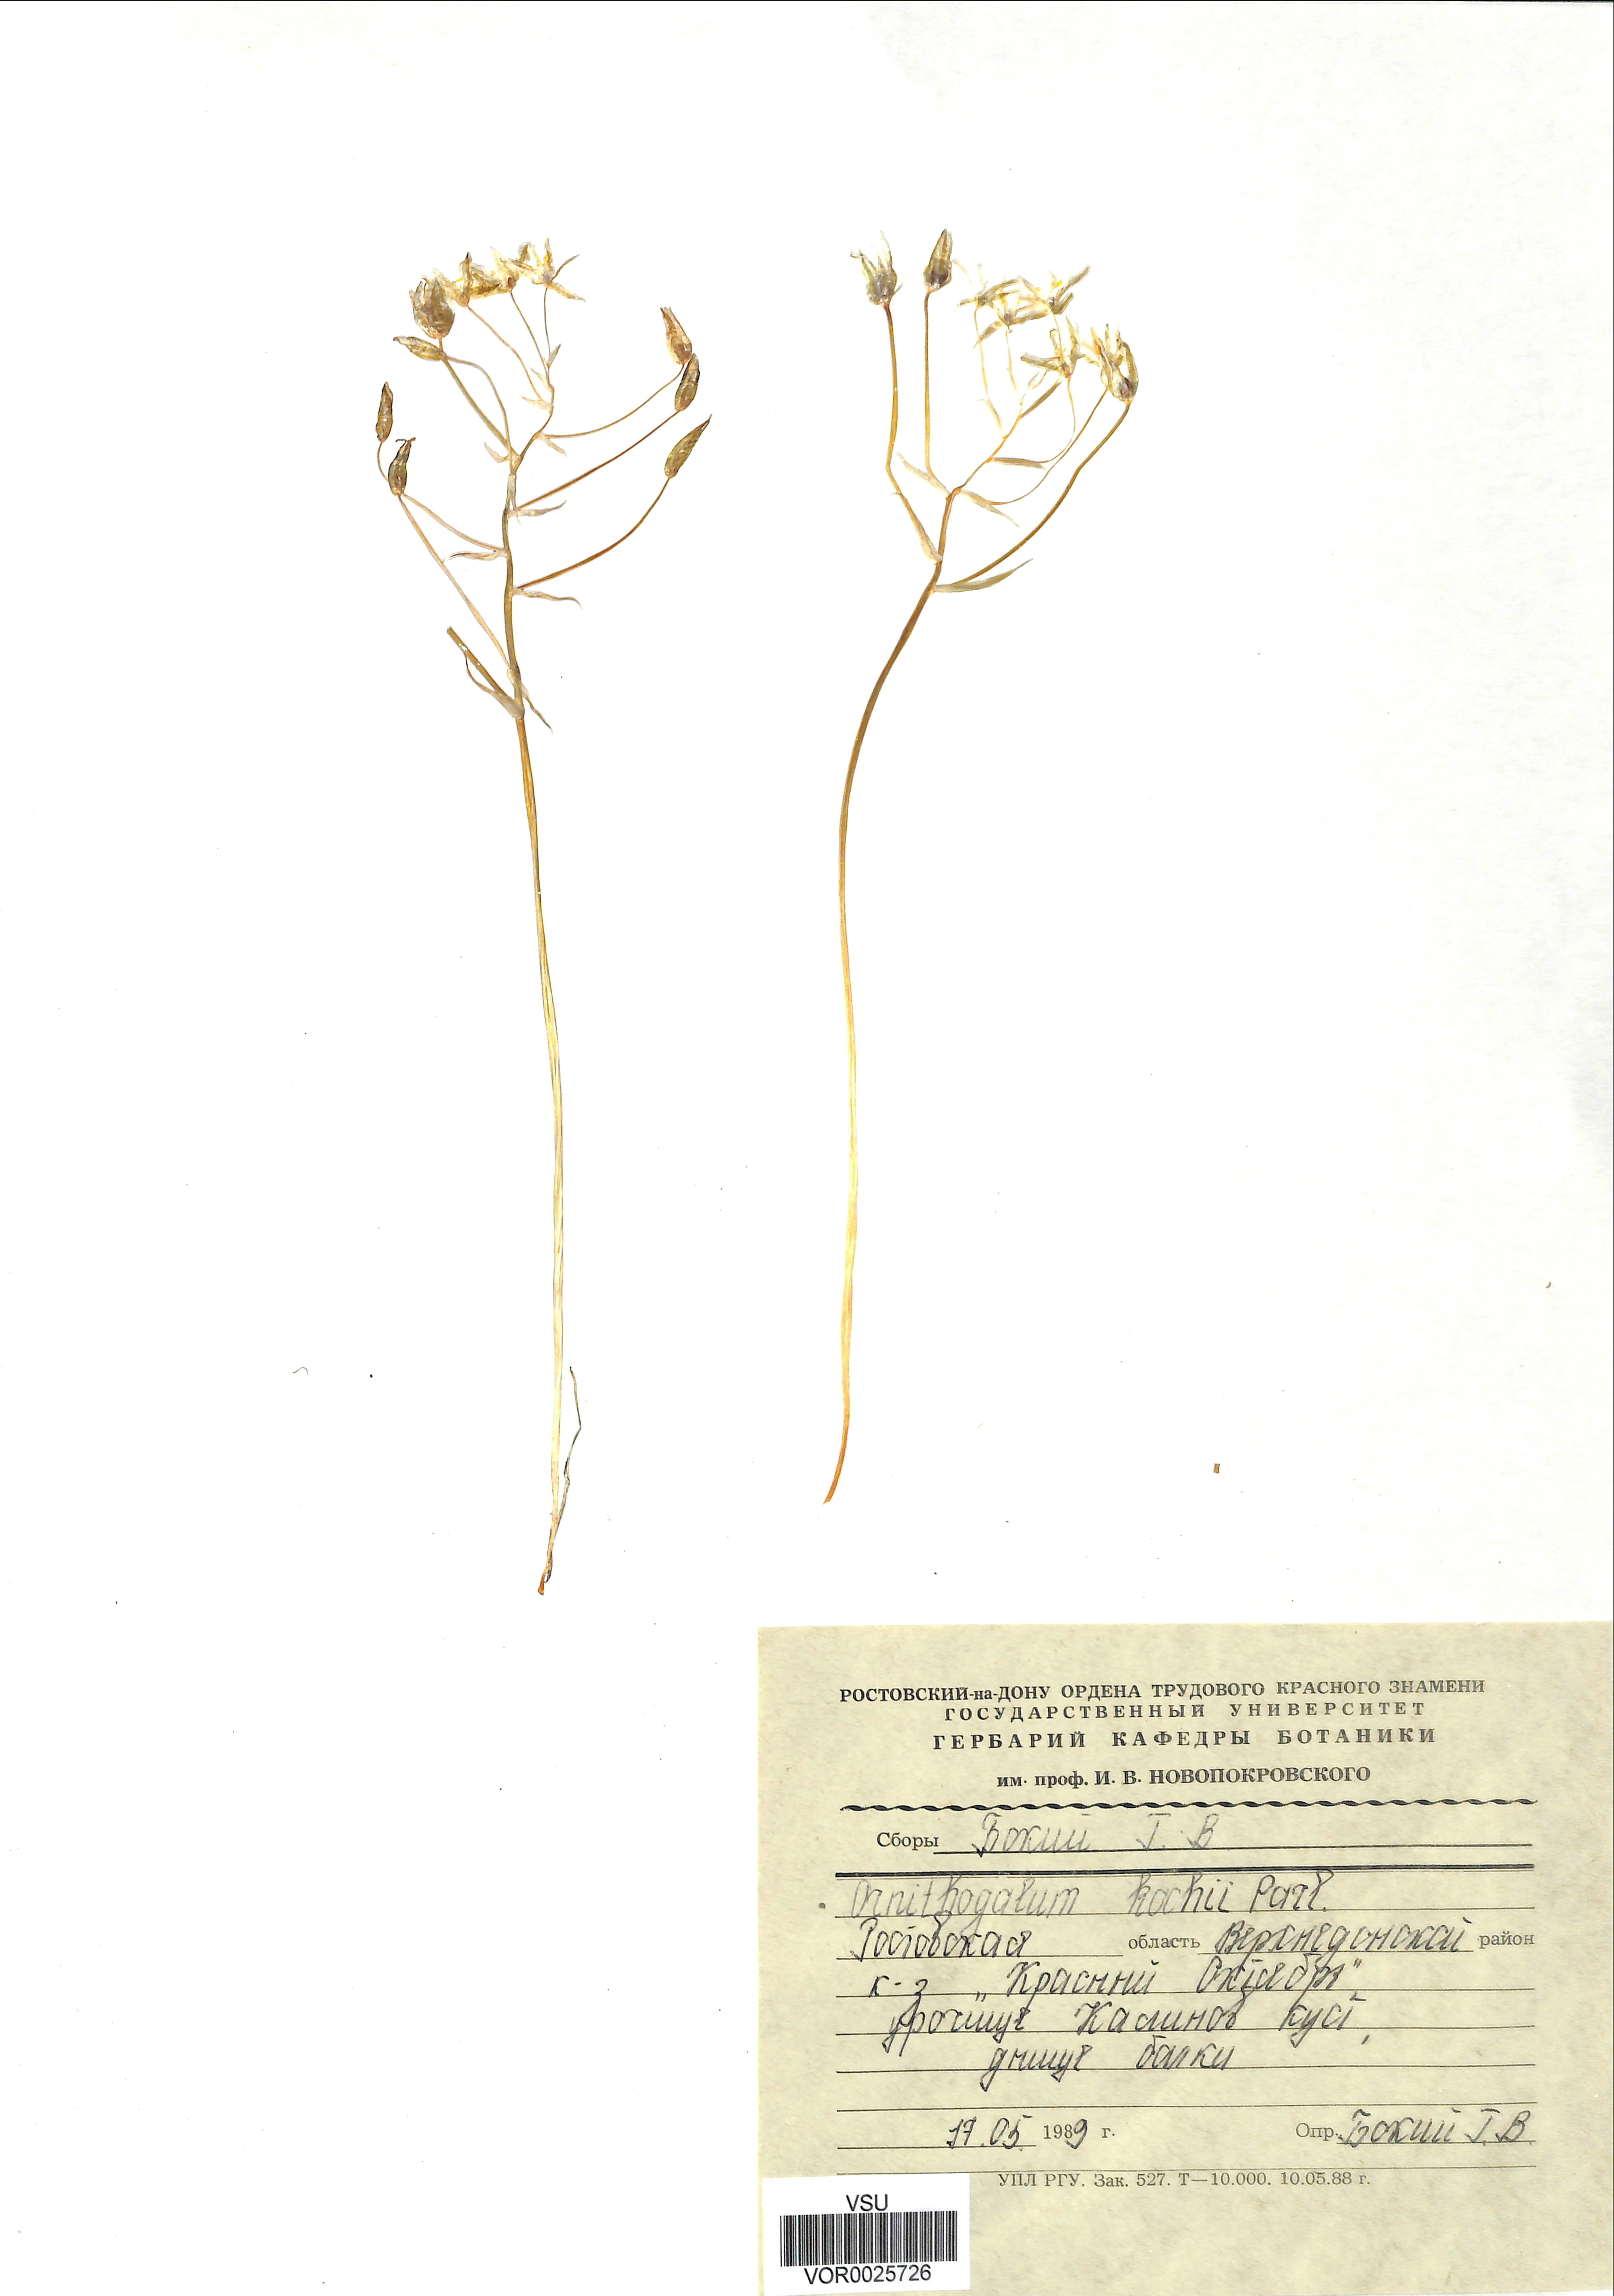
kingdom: Plantae
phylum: Tracheophyta
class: Liliopsida
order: Asparagales
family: Asparagaceae
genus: Ornithogalum
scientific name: Ornithogalum orthophyllum
